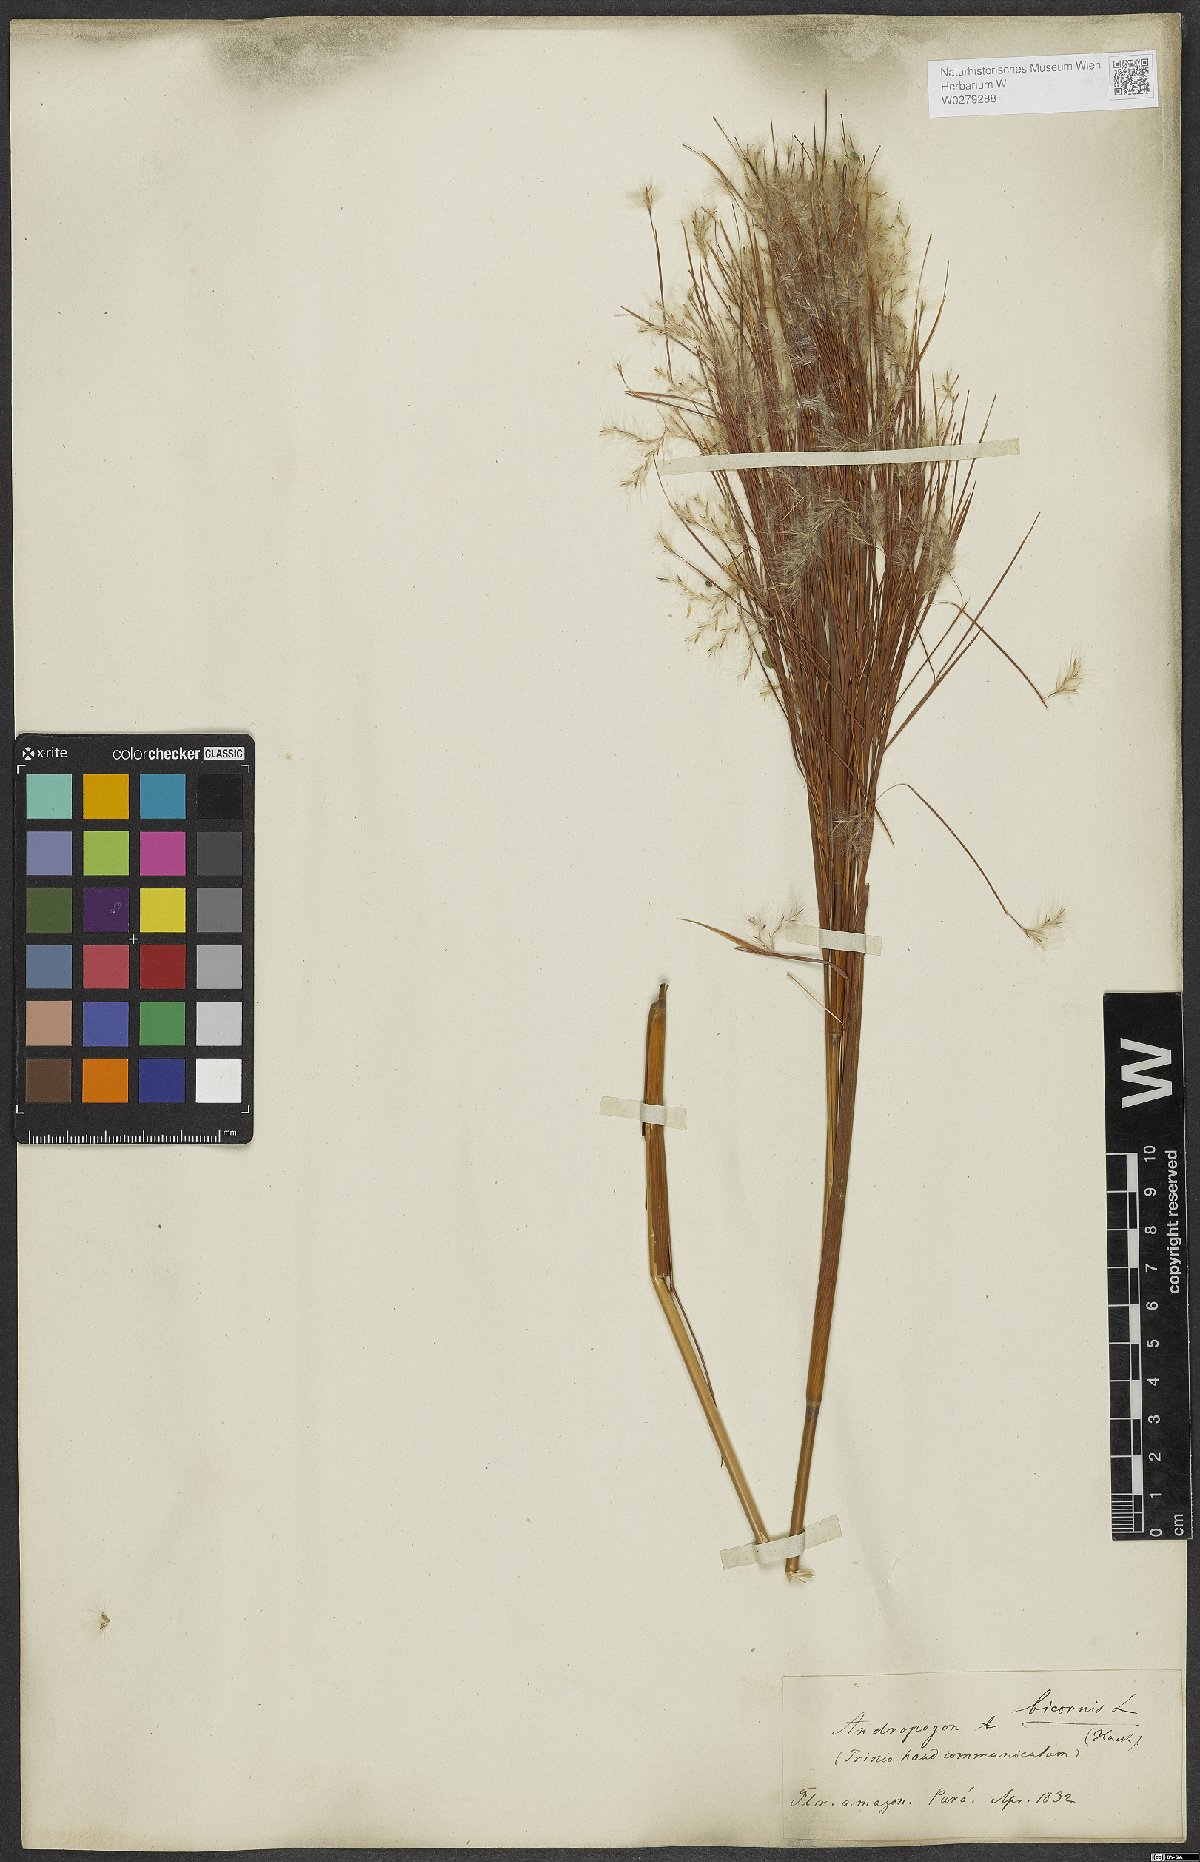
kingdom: Plantae
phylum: Tracheophyta
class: Liliopsida
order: Poales
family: Poaceae
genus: Andropogon
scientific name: Andropogon bicornis
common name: West indian foxtail grass
